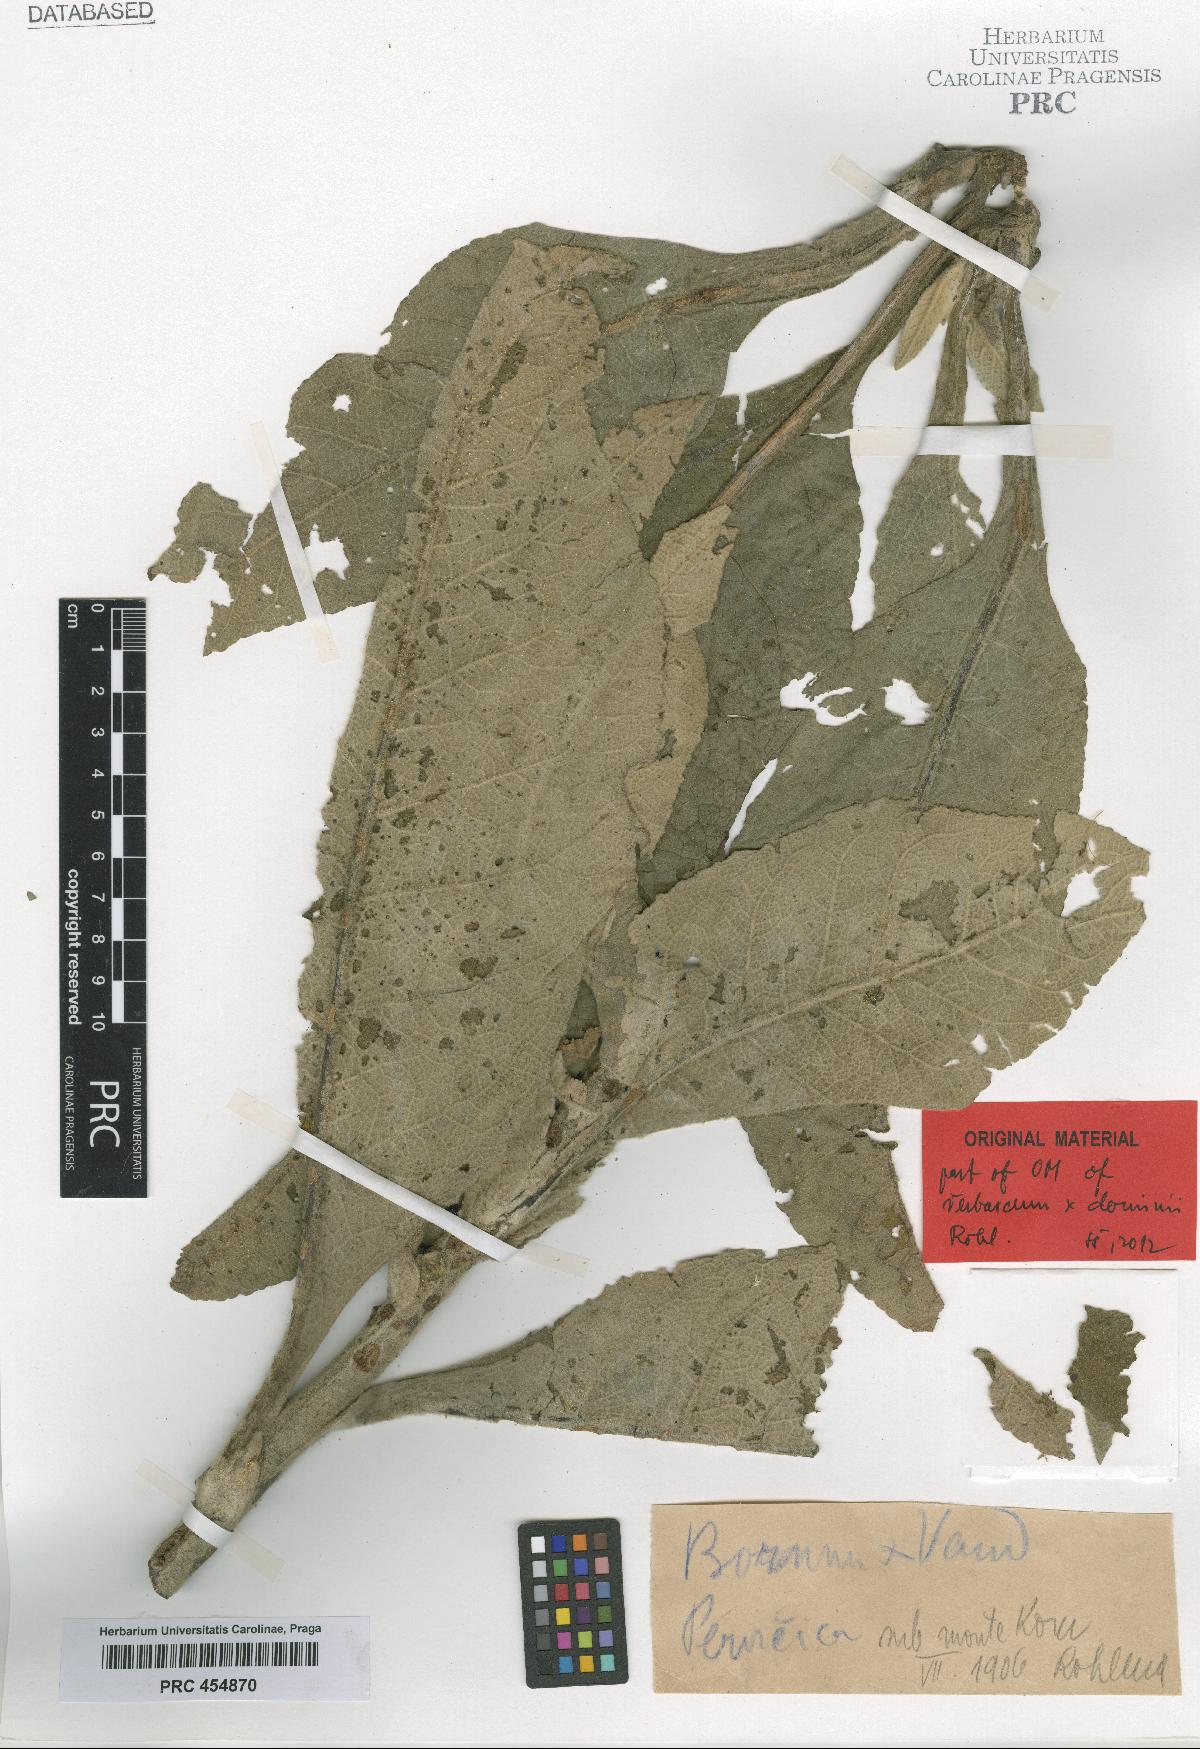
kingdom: Plantae
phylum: Tracheophyta
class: Magnoliopsida
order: Lamiales
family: Scrophulariaceae
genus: Verbascum
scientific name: Verbascum dominii
